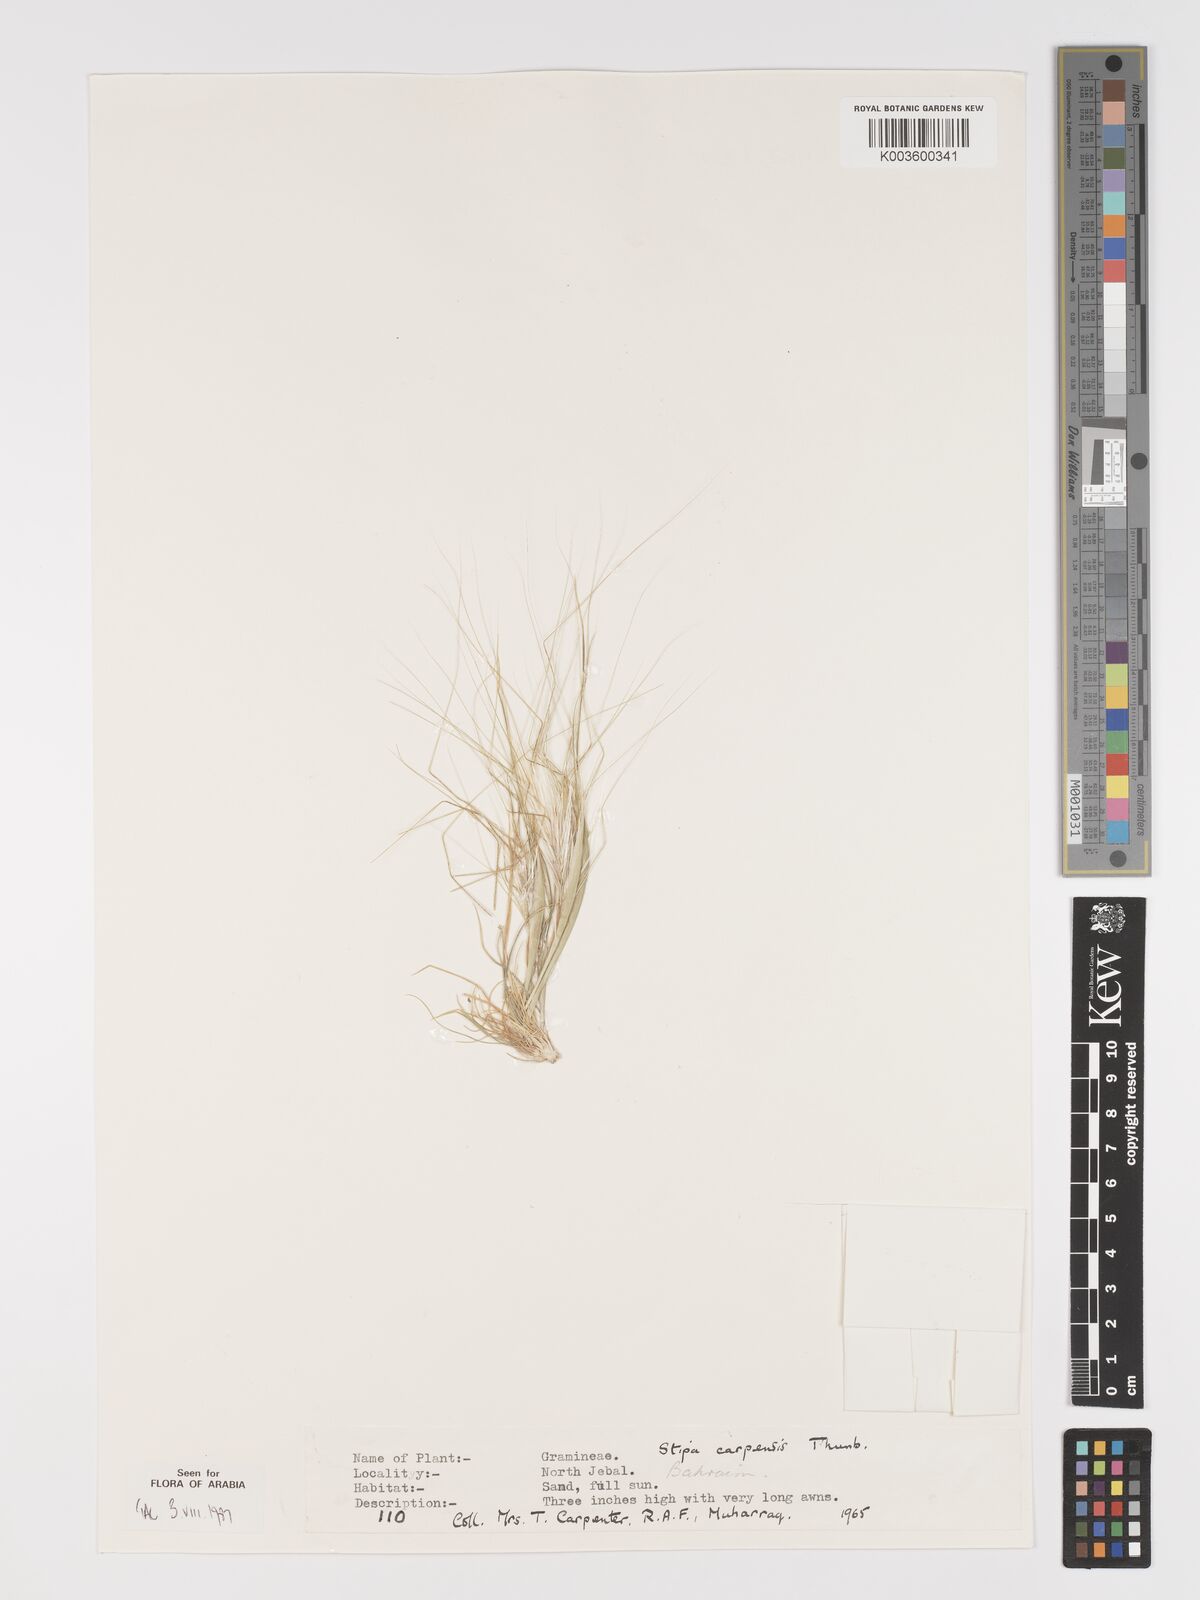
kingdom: Plantae
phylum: Tracheophyta
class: Liliopsida
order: Poales
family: Poaceae
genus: Stipellula
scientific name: Stipellula capensis
